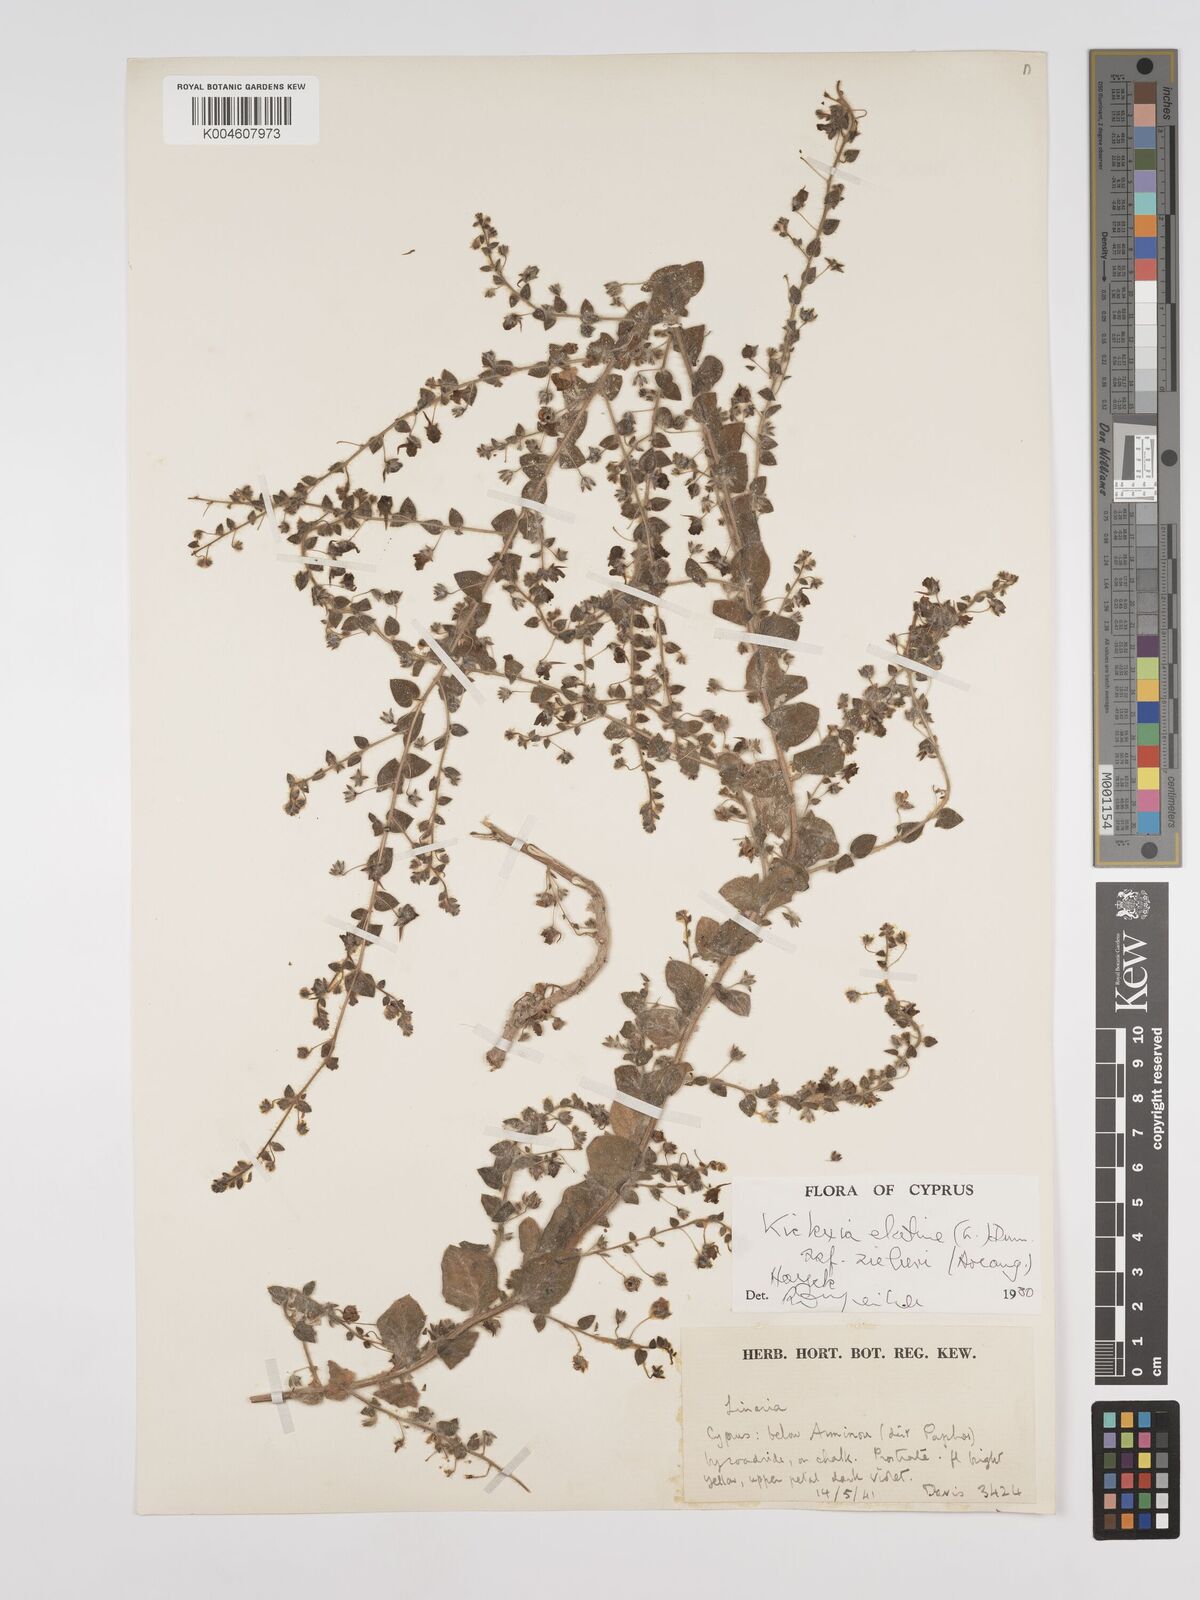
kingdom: Plantae
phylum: Tracheophyta
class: Magnoliopsida
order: Lamiales
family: Plantaginaceae
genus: Kickxia
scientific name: Kickxia
